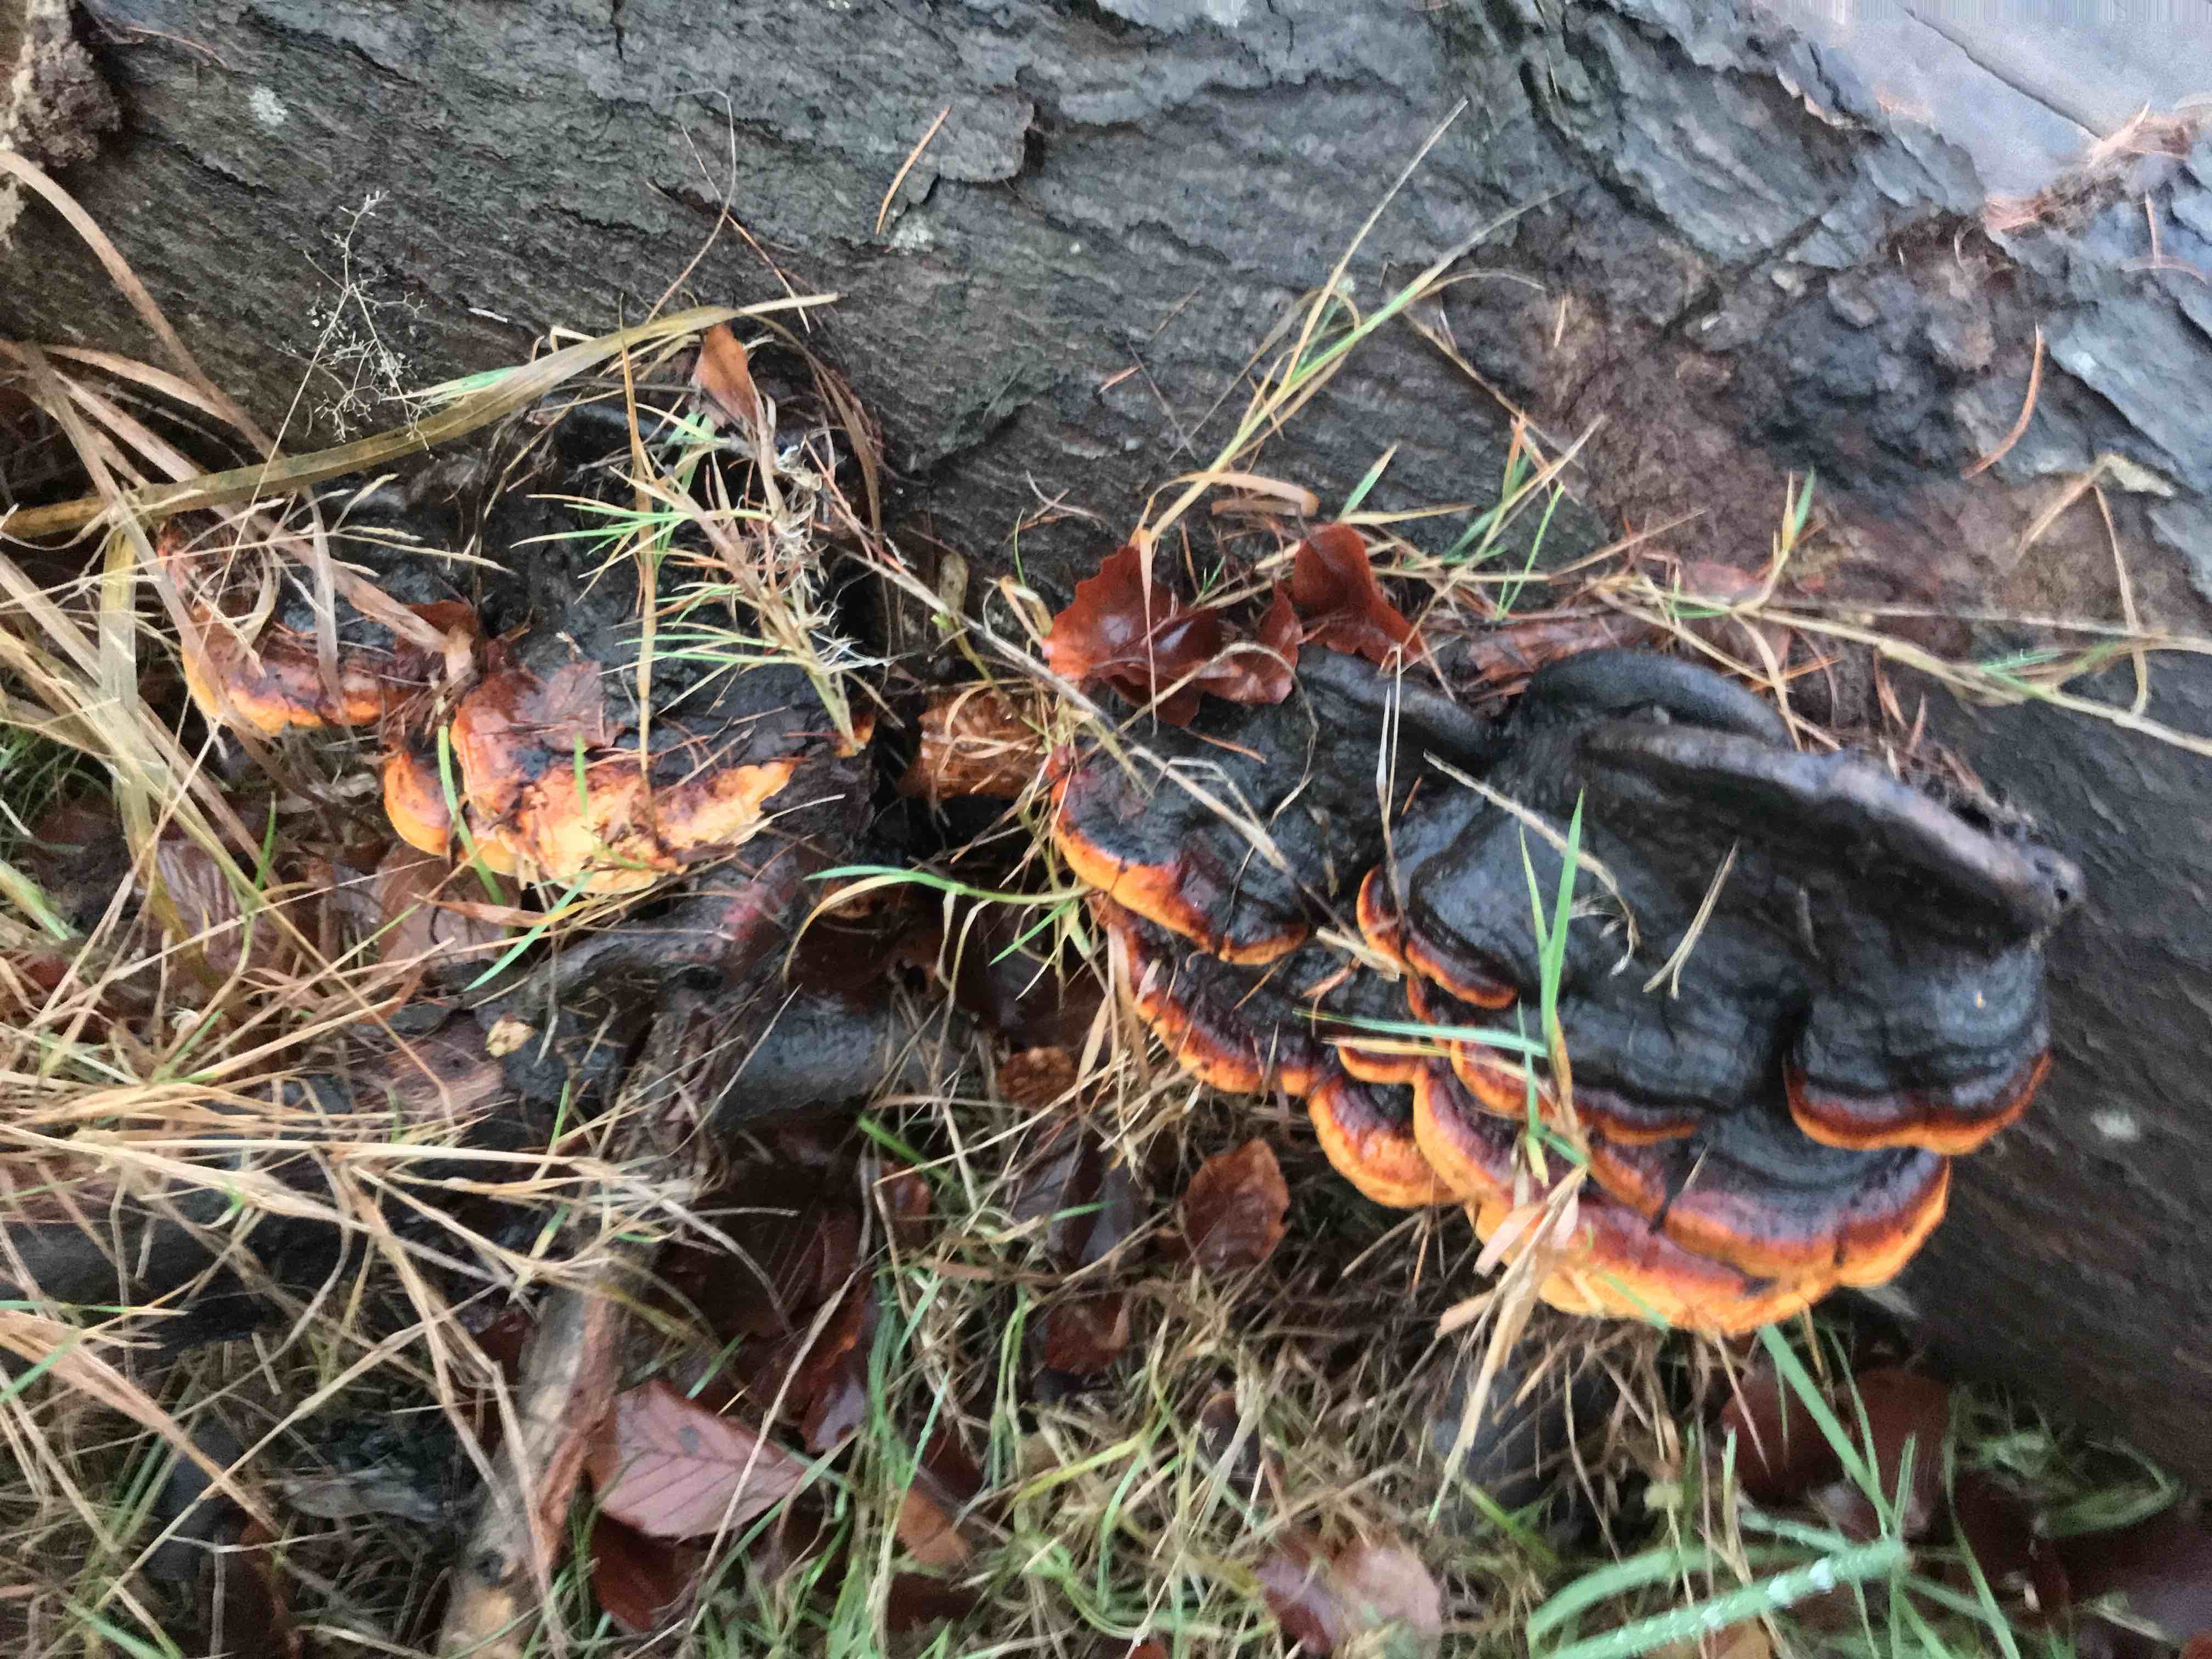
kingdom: Fungi
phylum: Basidiomycota
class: Agaricomycetes
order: Polyporales
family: Fomitopsidaceae
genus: Fomitopsis
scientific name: Fomitopsis pinicola
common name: randbæltet hovporesvamp
